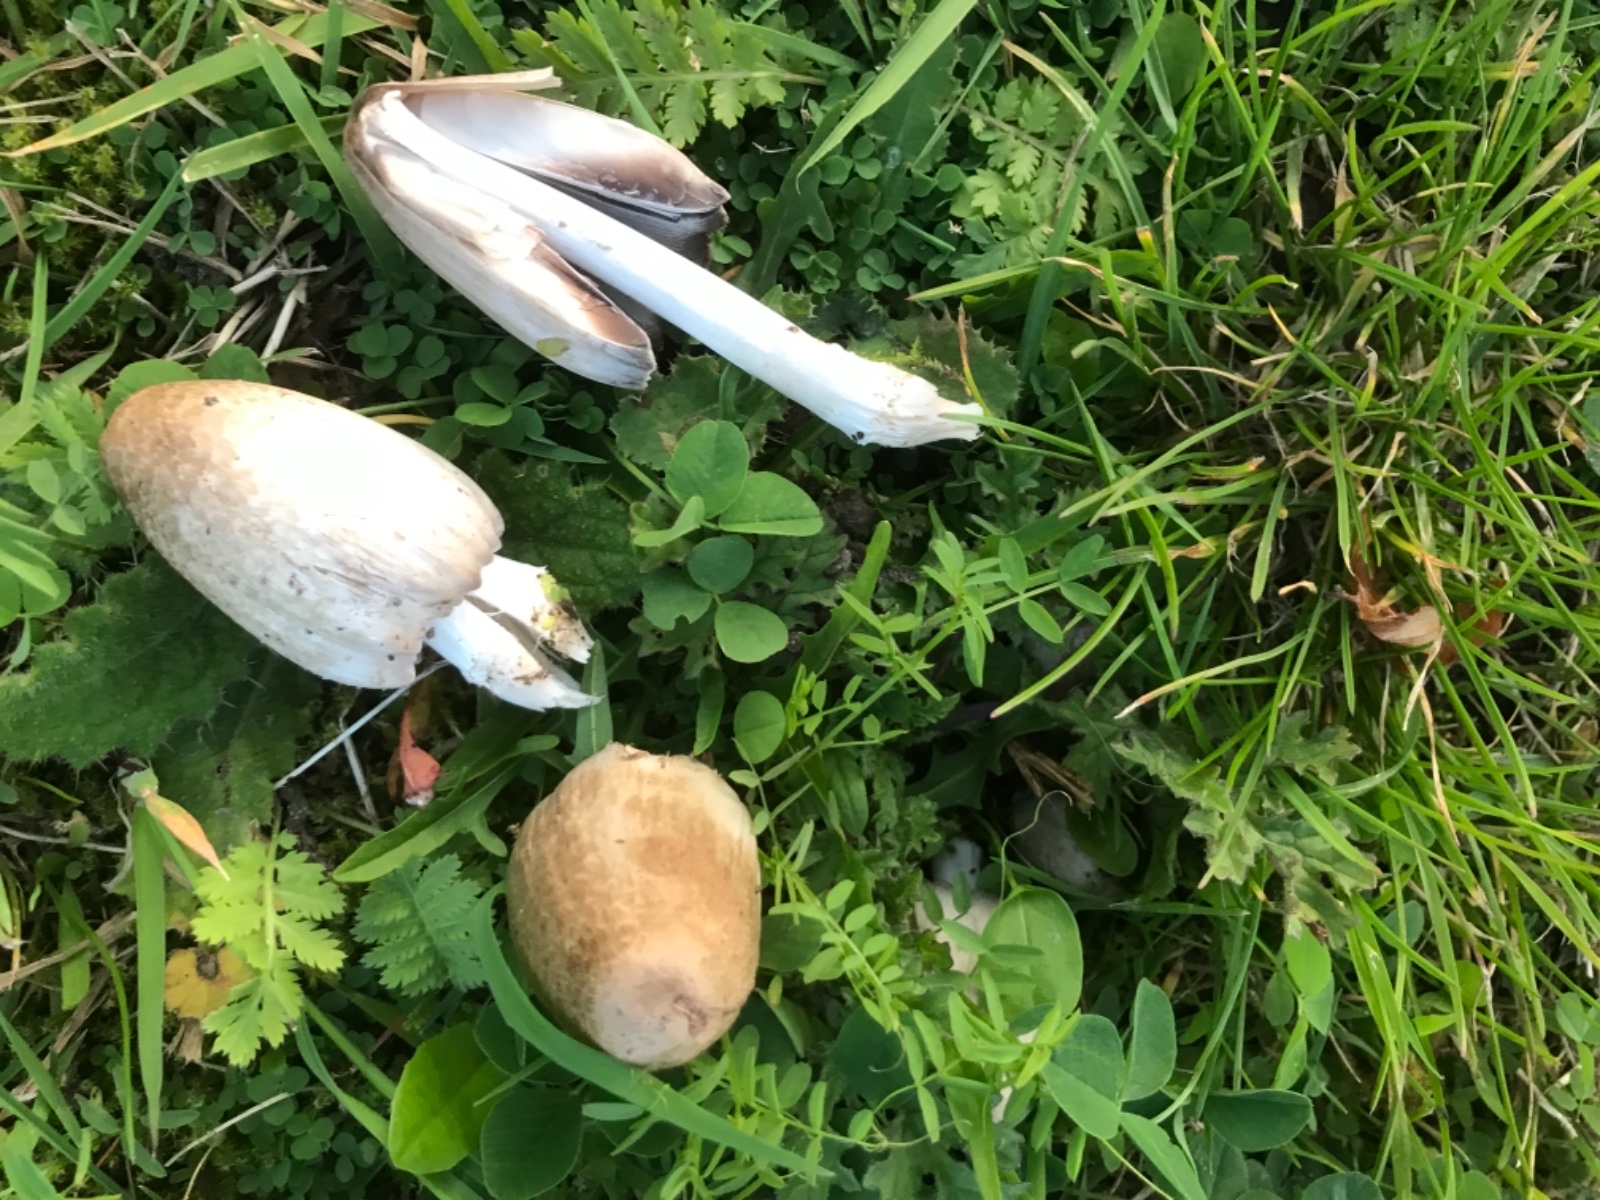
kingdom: Fungi
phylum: Basidiomycota
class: Agaricomycetes
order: Agaricales
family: Psathyrellaceae
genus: Coprinopsis
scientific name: Coprinopsis atramentaria
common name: almindelig blækhat
